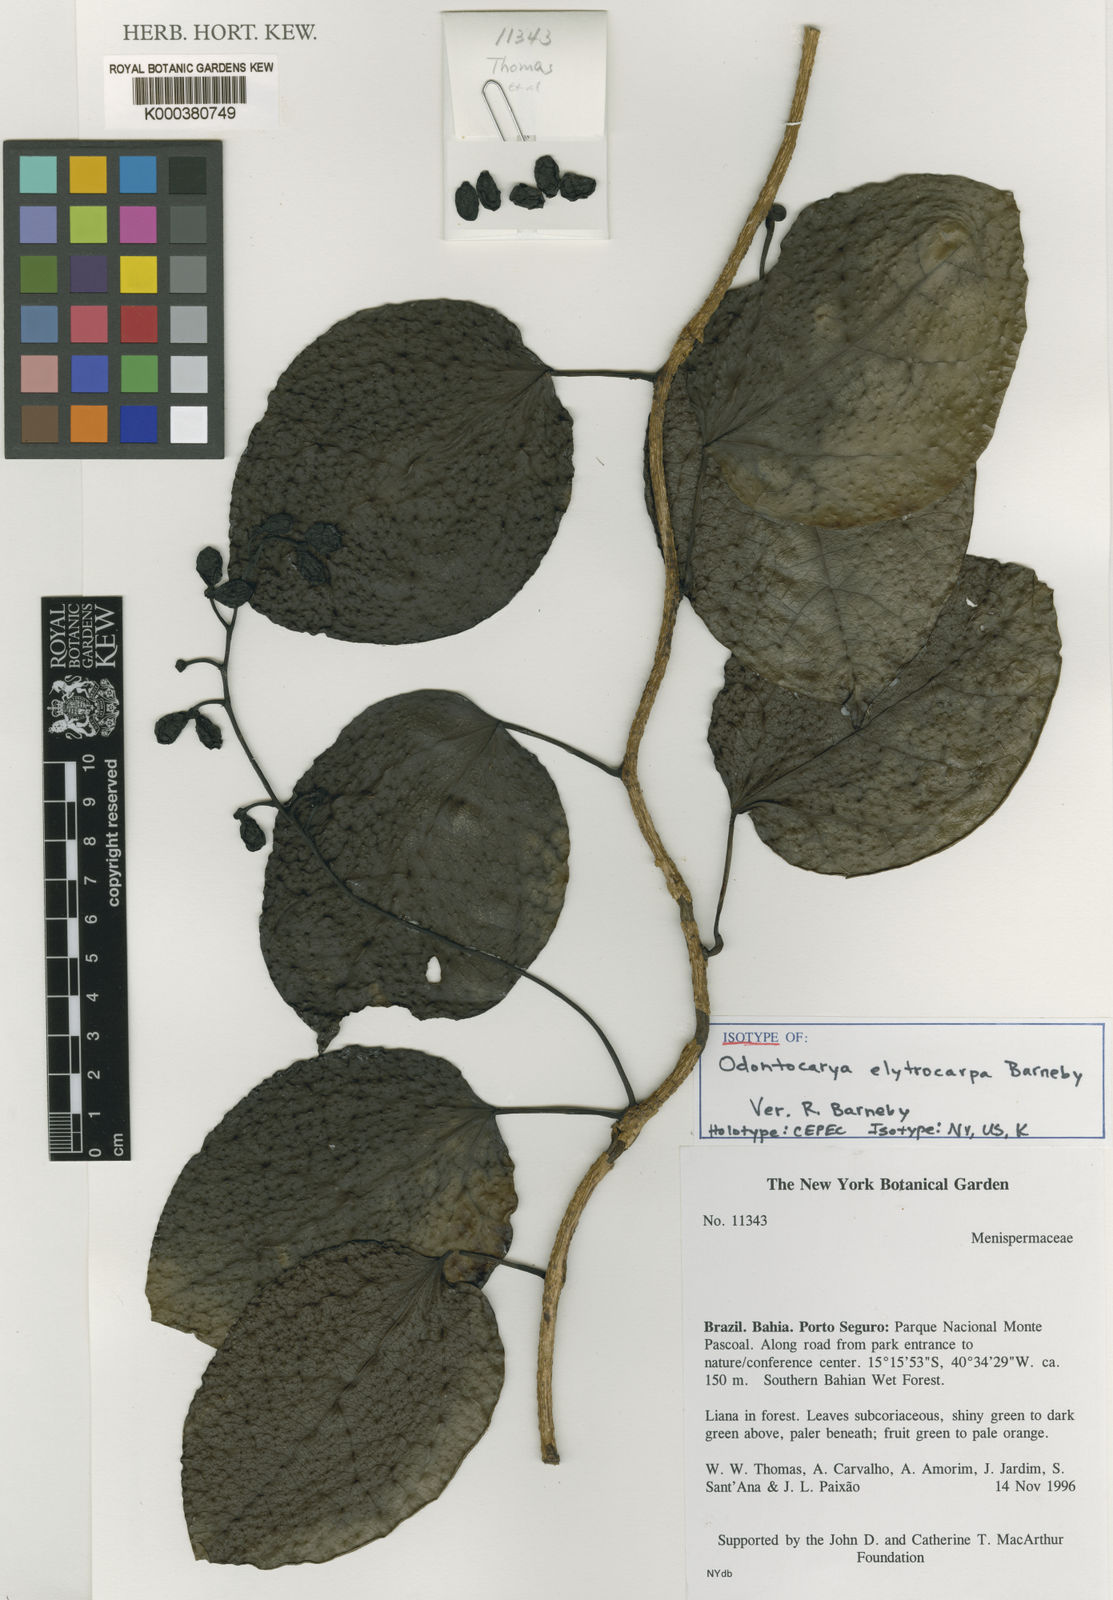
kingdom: Plantae
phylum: Tracheophyta
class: Magnoliopsida
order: Ranunculales
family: Menispermaceae
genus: Odontocarya
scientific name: Odontocarya
